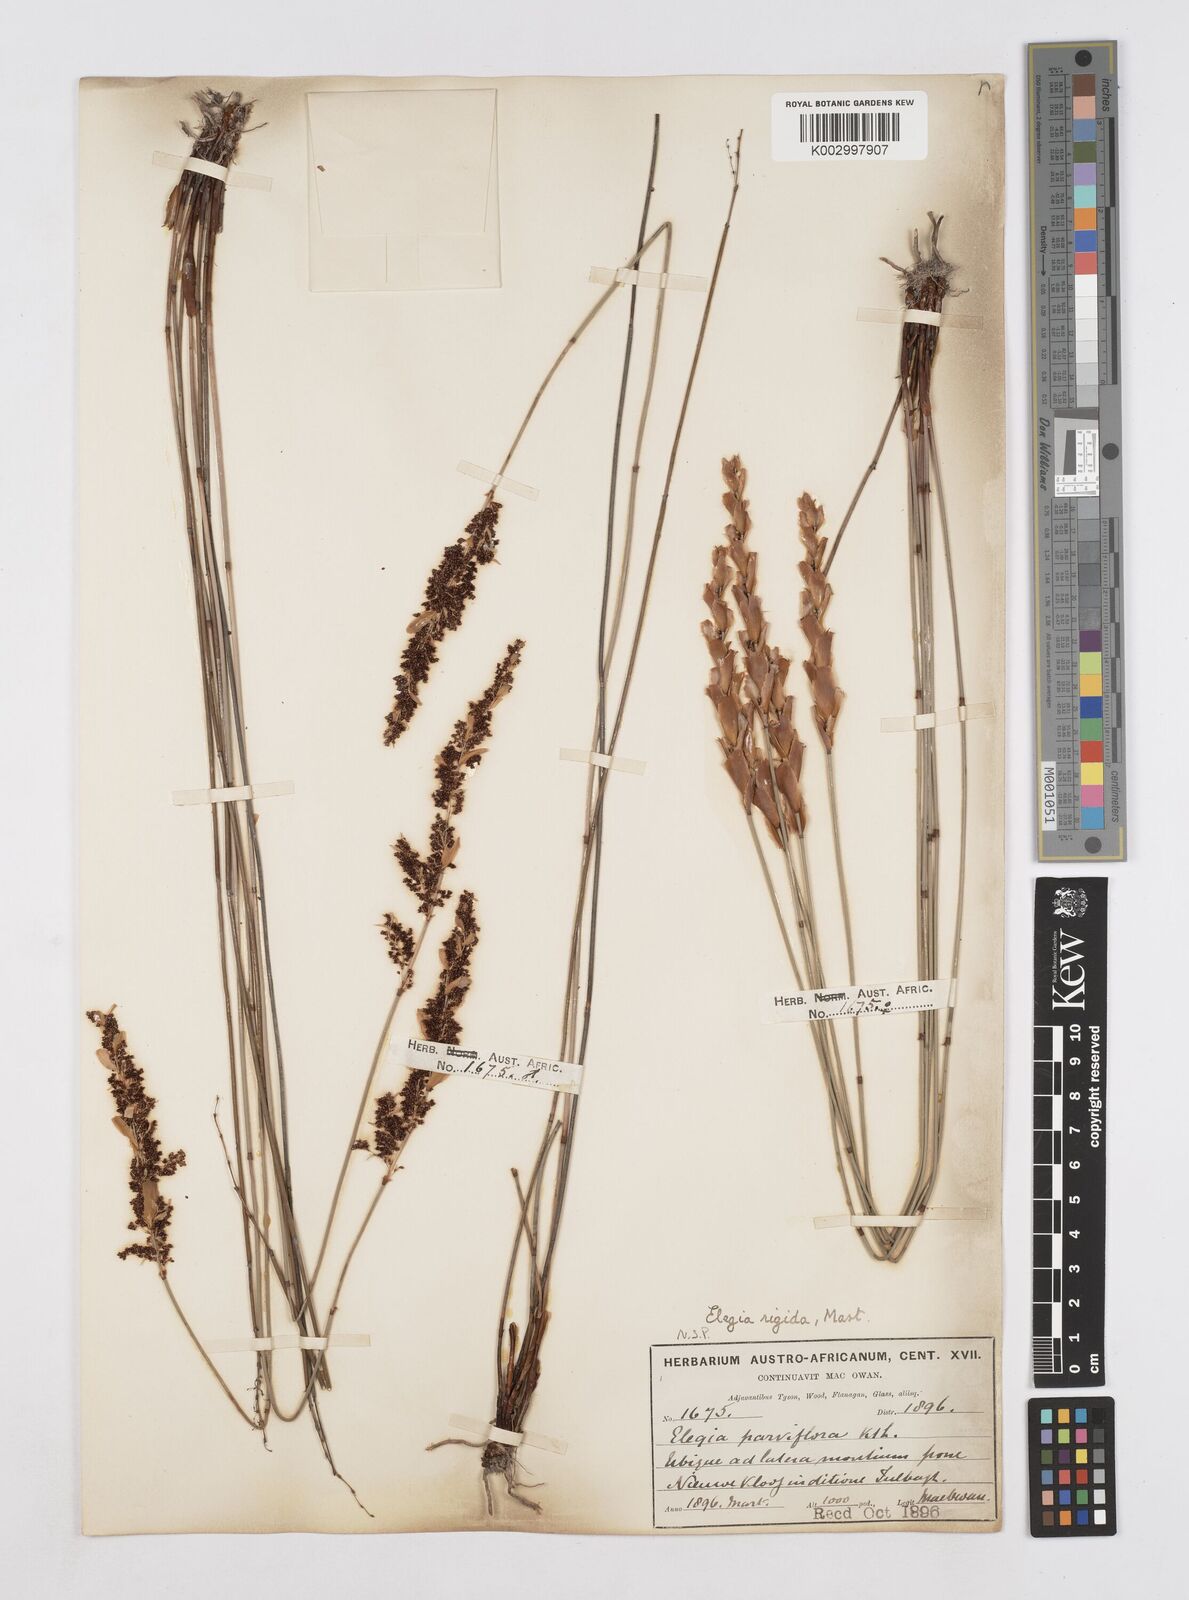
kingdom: Plantae
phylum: Tracheophyta
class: Liliopsida
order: Poales
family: Restionaceae
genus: Elegia
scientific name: Elegia rigida
